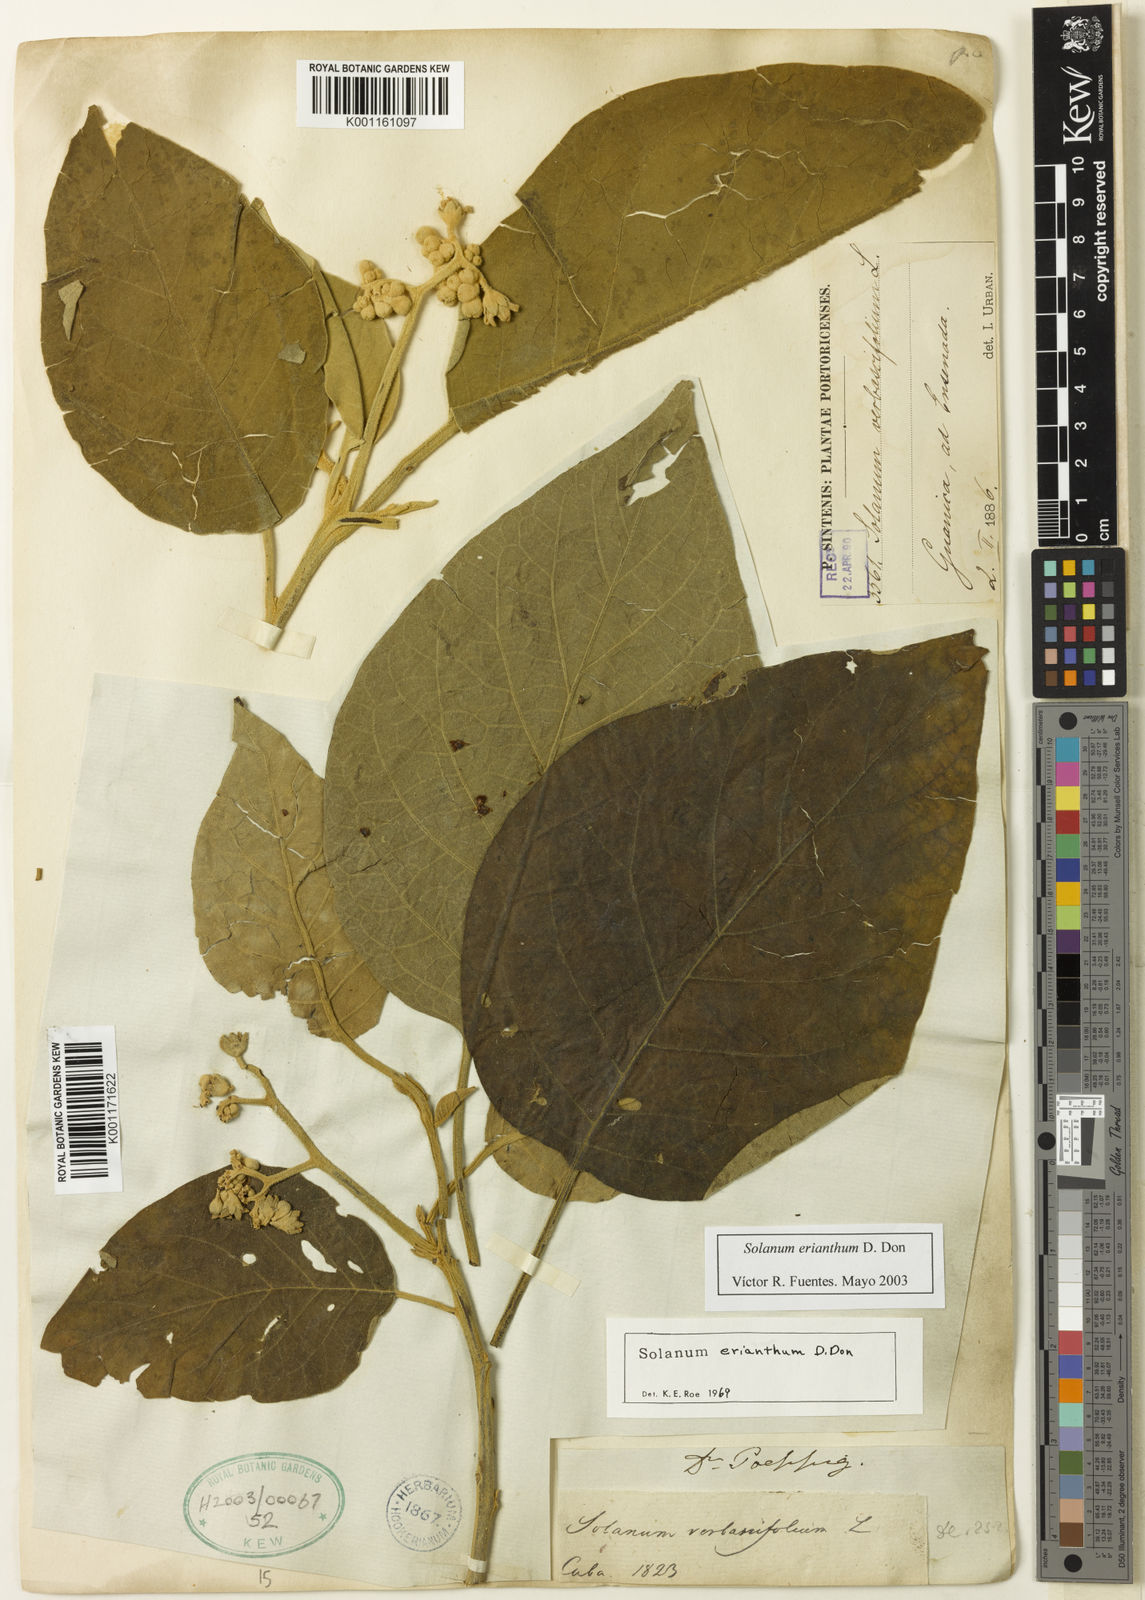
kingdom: Plantae
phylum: Tracheophyta
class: Magnoliopsida
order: Solanales
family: Solanaceae
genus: Solanum
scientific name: Solanum erianthum
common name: Tobacco-tree
